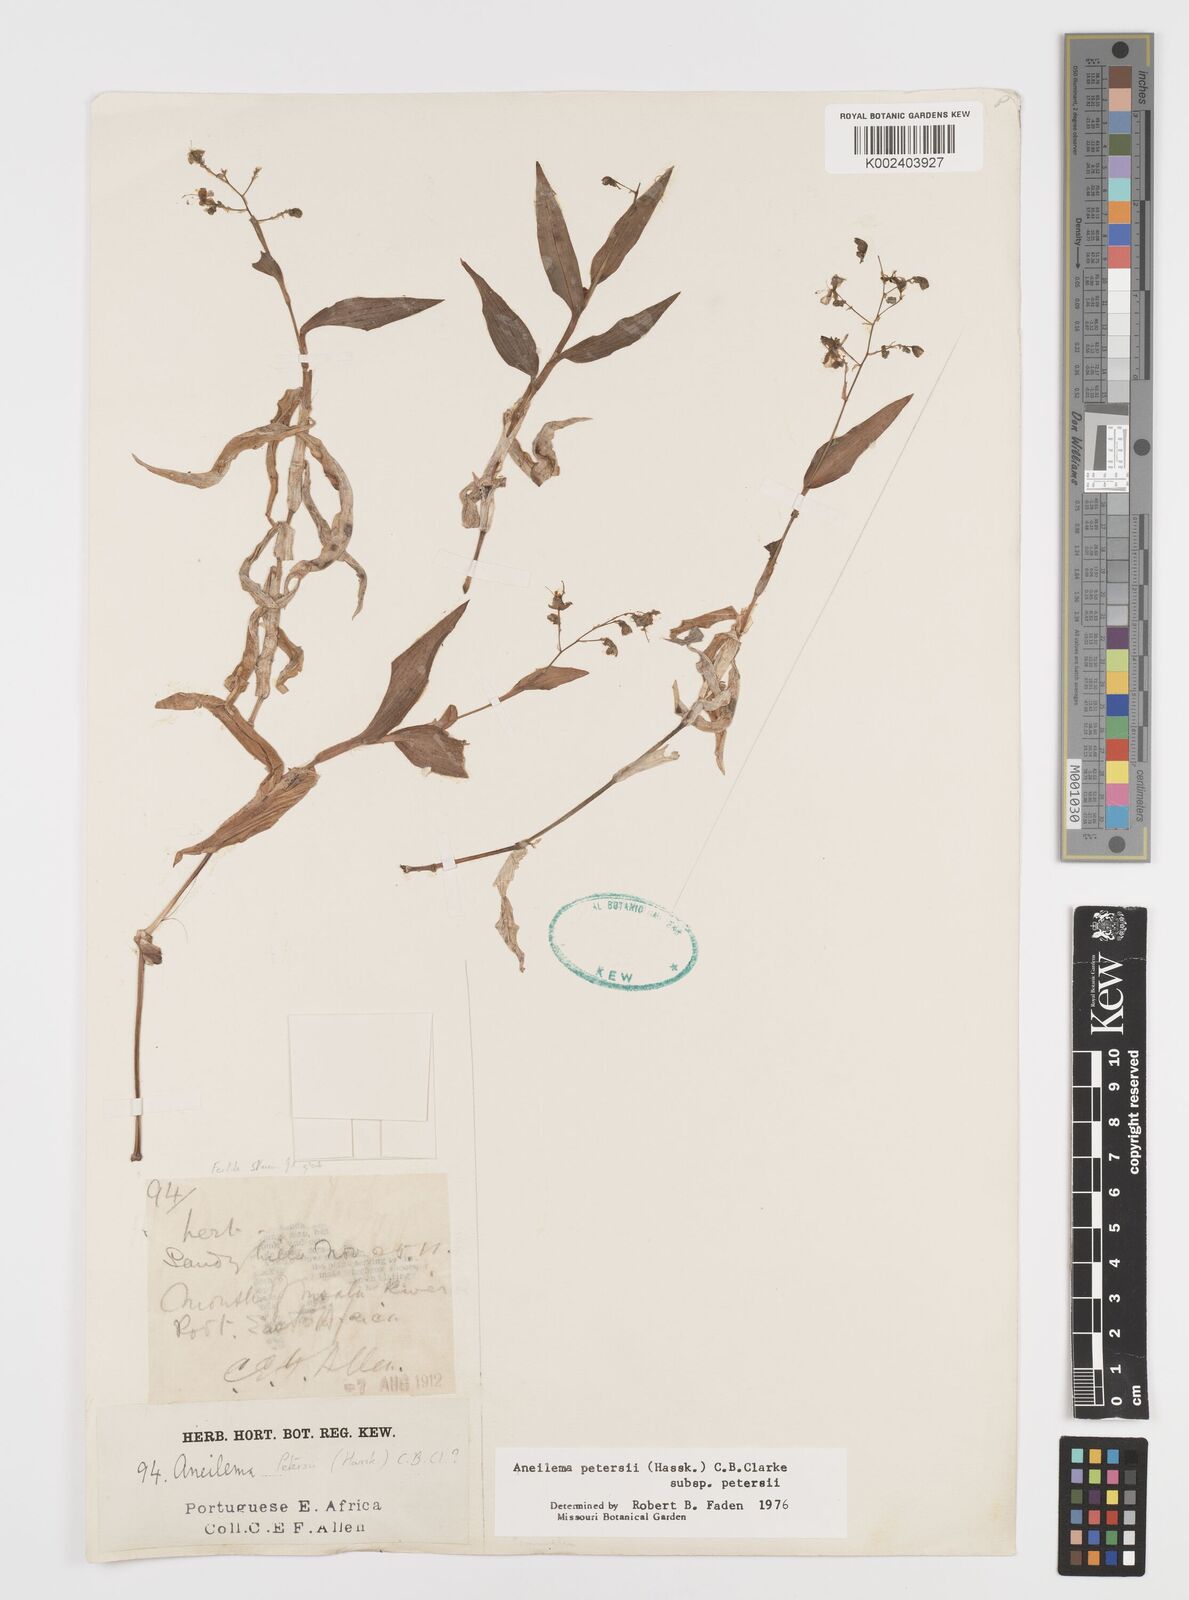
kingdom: Plantae
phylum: Tracheophyta
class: Liliopsida
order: Commelinales
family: Commelinaceae
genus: Aneilema
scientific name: Aneilema petersii
